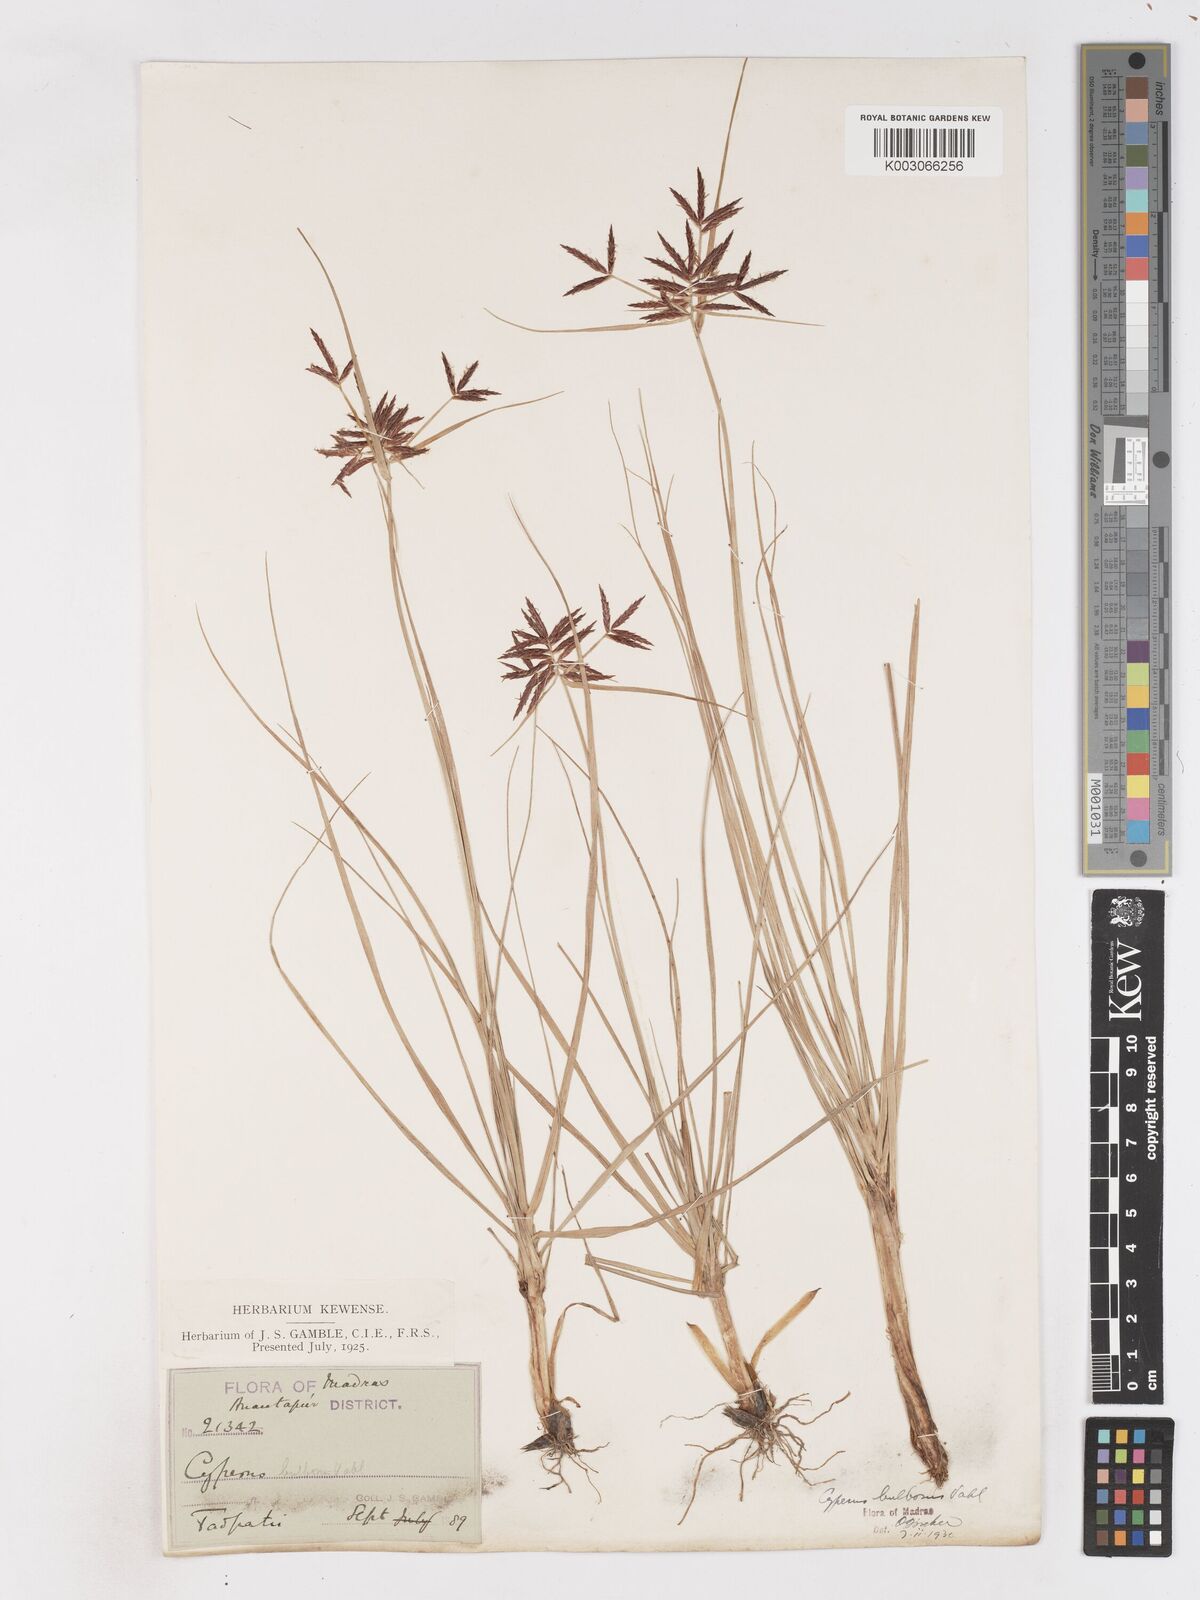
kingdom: Plantae
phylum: Tracheophyta
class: Liliopsida
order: Poales
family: Cyperaceae
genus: Cyperus
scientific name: Cyperus bulbosus
